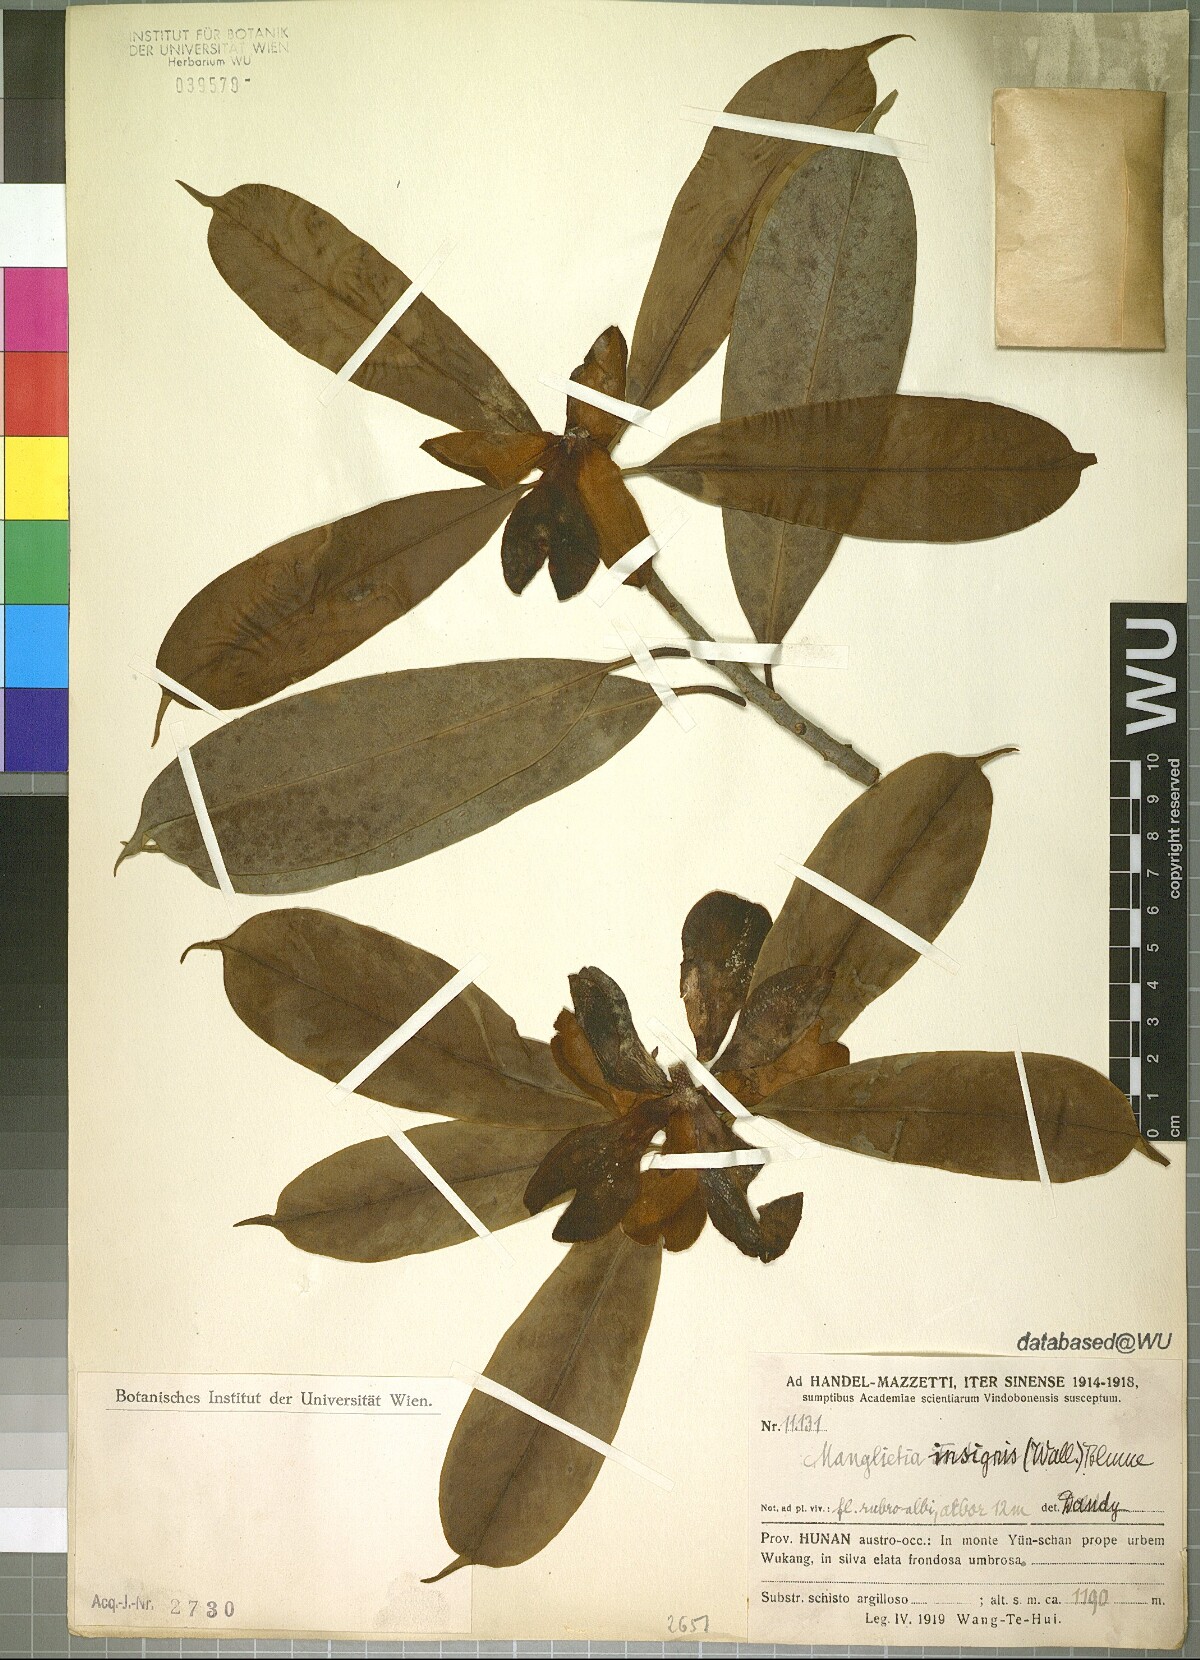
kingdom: Plantae
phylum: Tracheophyta
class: Magnoliopsida
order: Magnoliales
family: Magnoliaceae
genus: Magnolia
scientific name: Magnolia insignis
